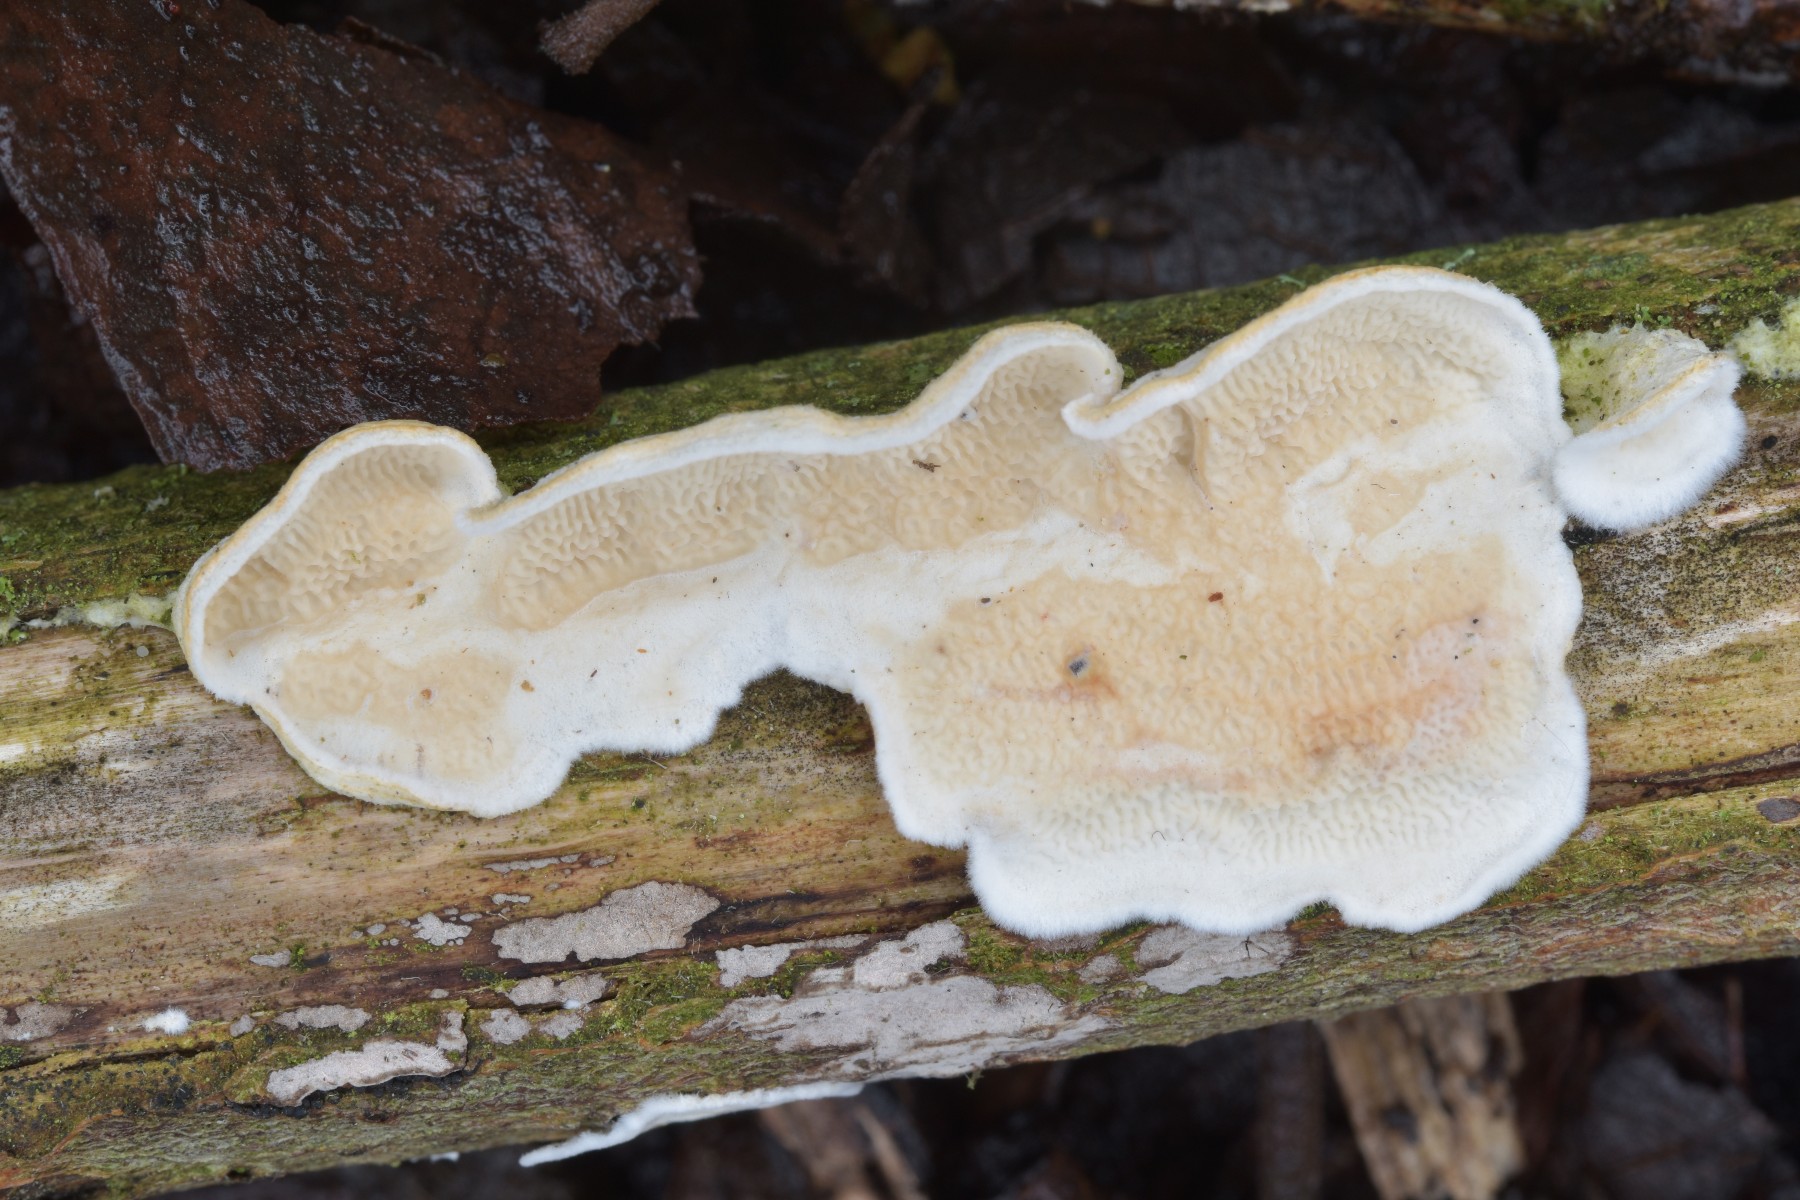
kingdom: Fungi
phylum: Basidiomycota
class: Agaricomycetes
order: Polyporales
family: Irpicaceae
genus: Byssomerulius
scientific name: Byssomerulius corium
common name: læder-åresvamp
